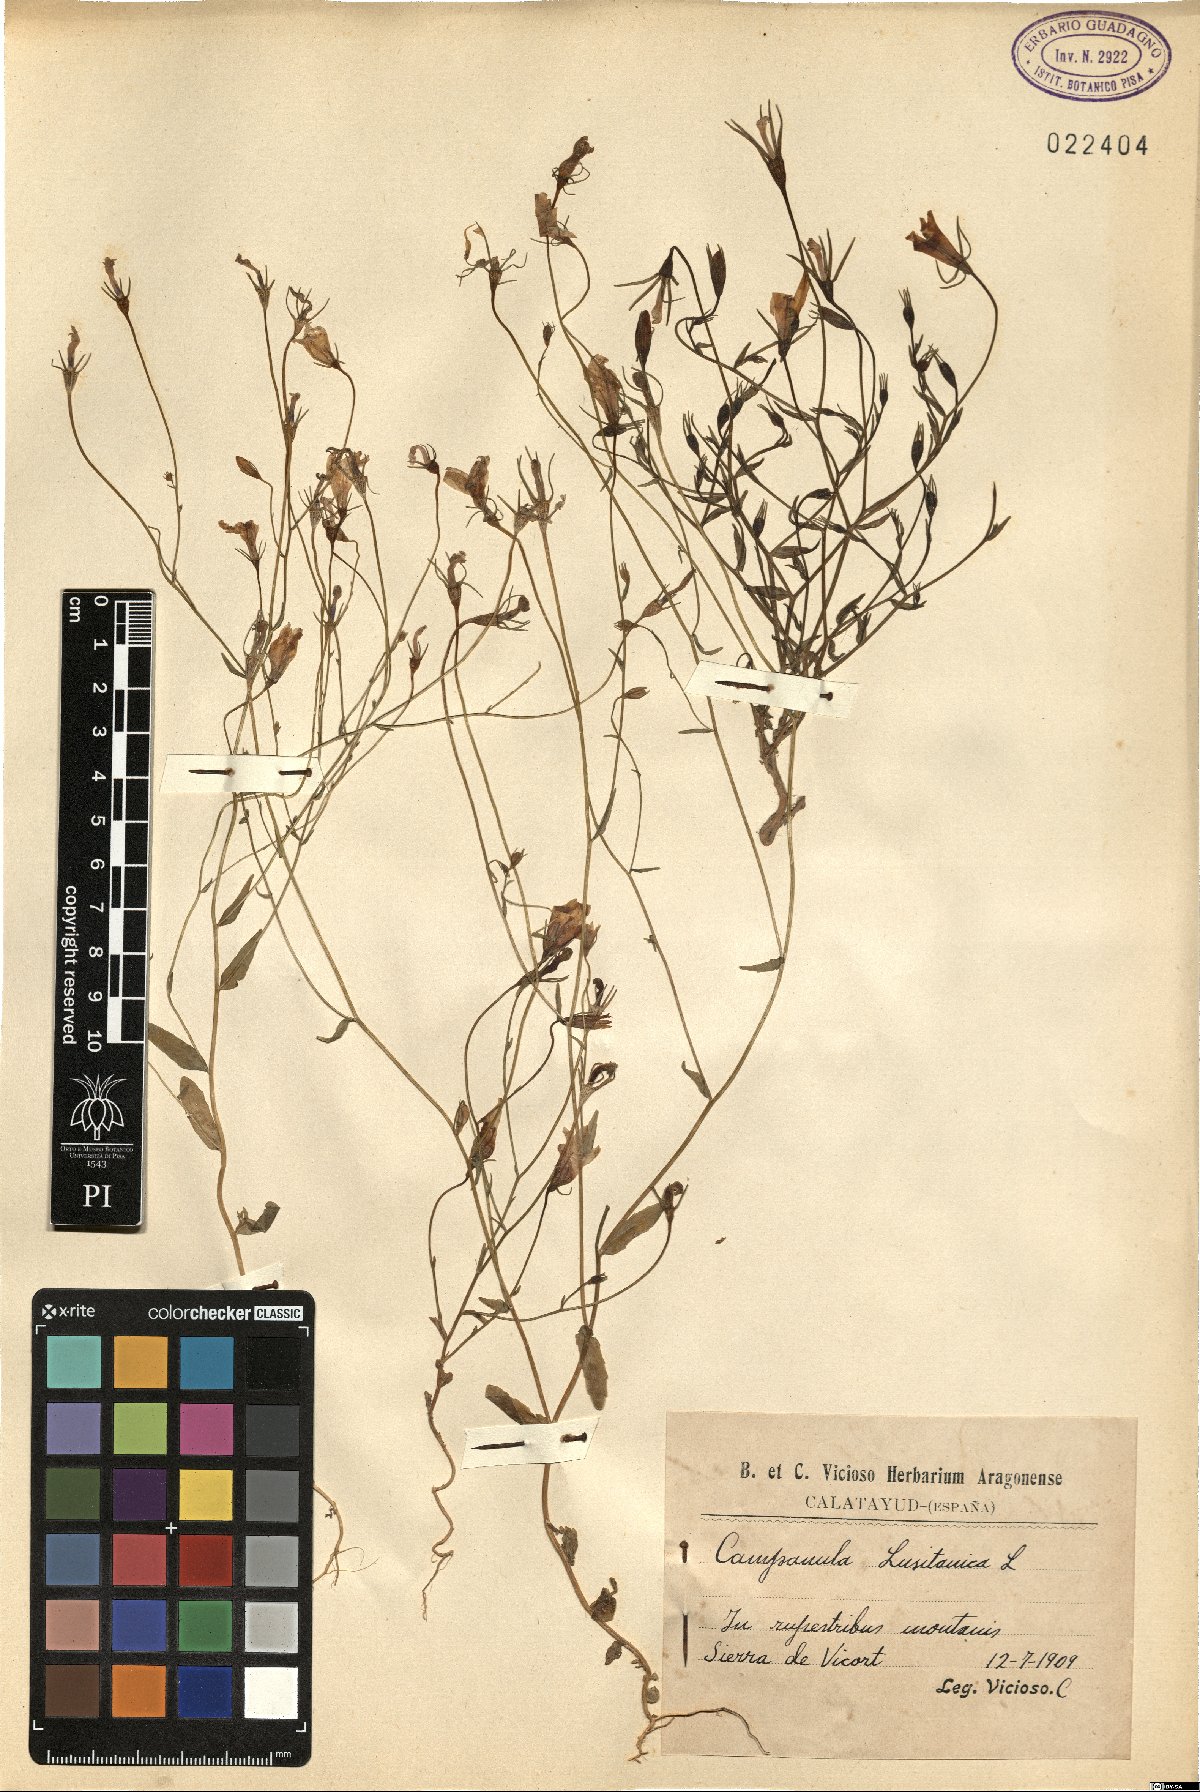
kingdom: Plantae
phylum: Tracheophyta
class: Magnoliopsida
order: Asterales
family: Campanulaceae
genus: Campanula
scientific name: Campanula lusitanica
